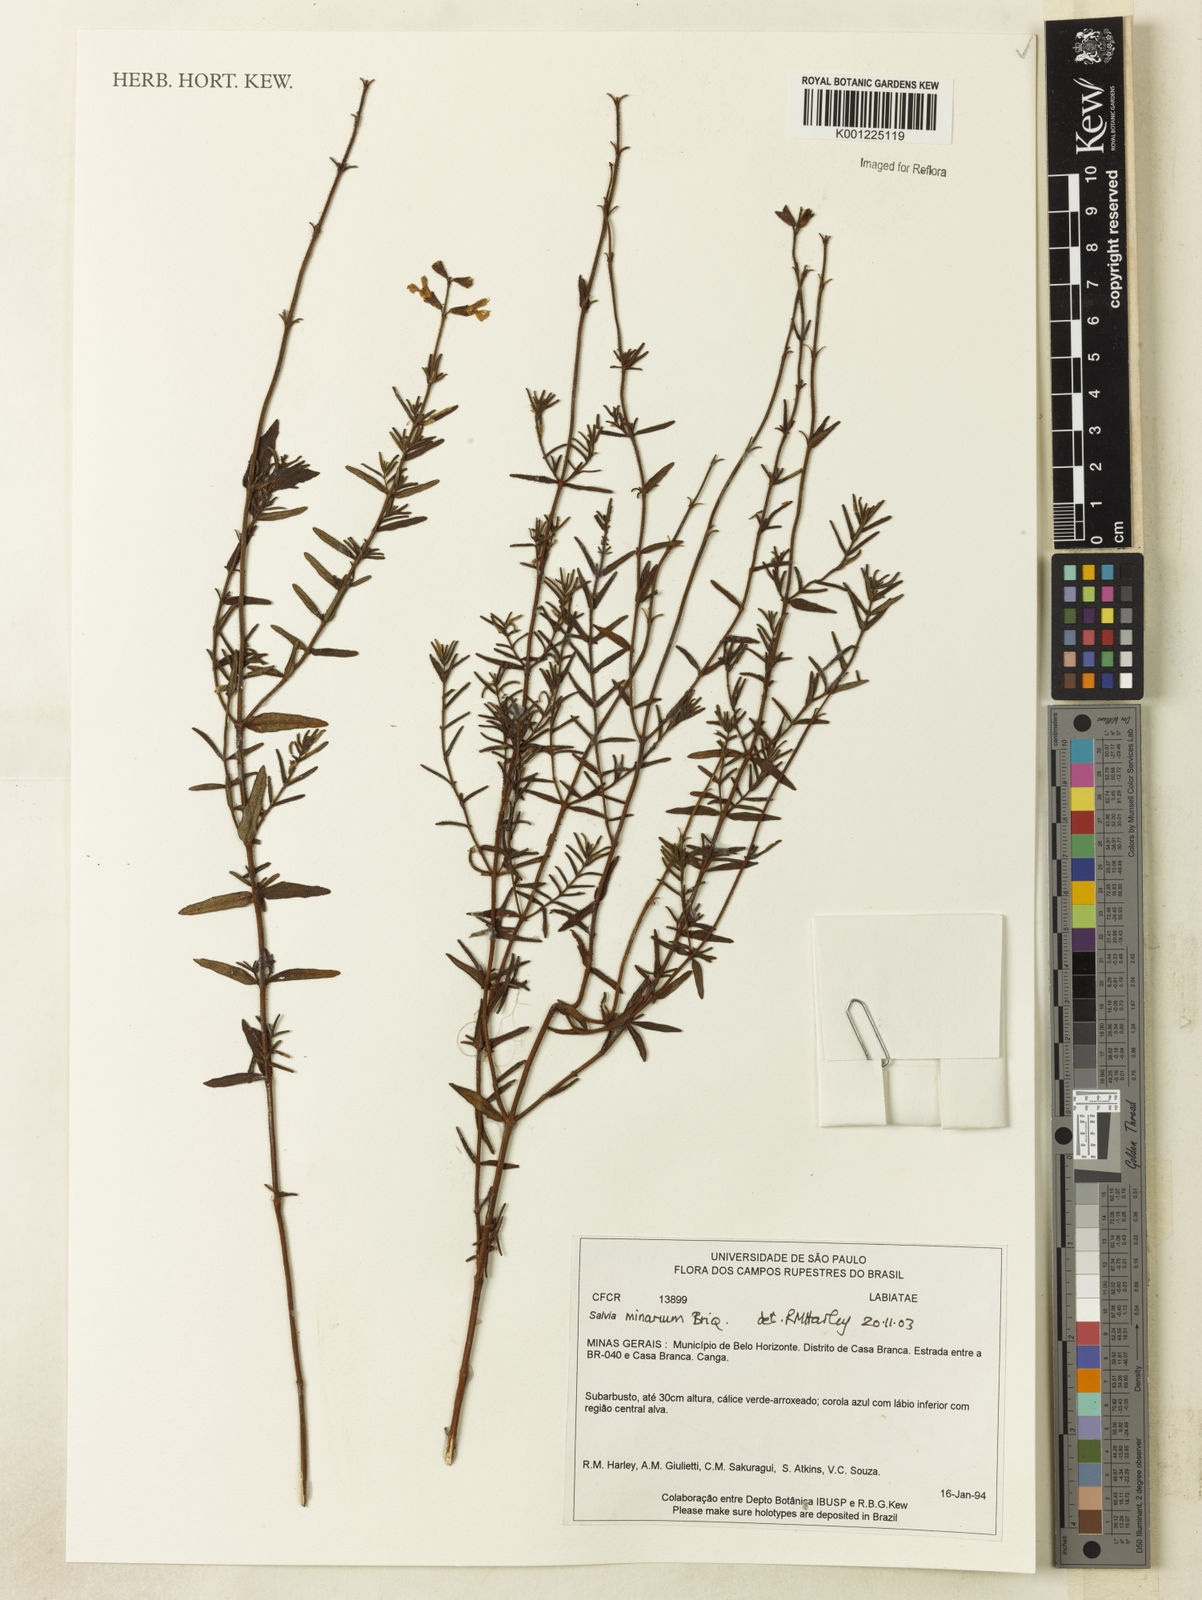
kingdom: Plantae
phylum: Tracheophyta
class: Magnoliopsida
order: Lamiales
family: Lamiaceae
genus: Salvia
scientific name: Salvia minarum
